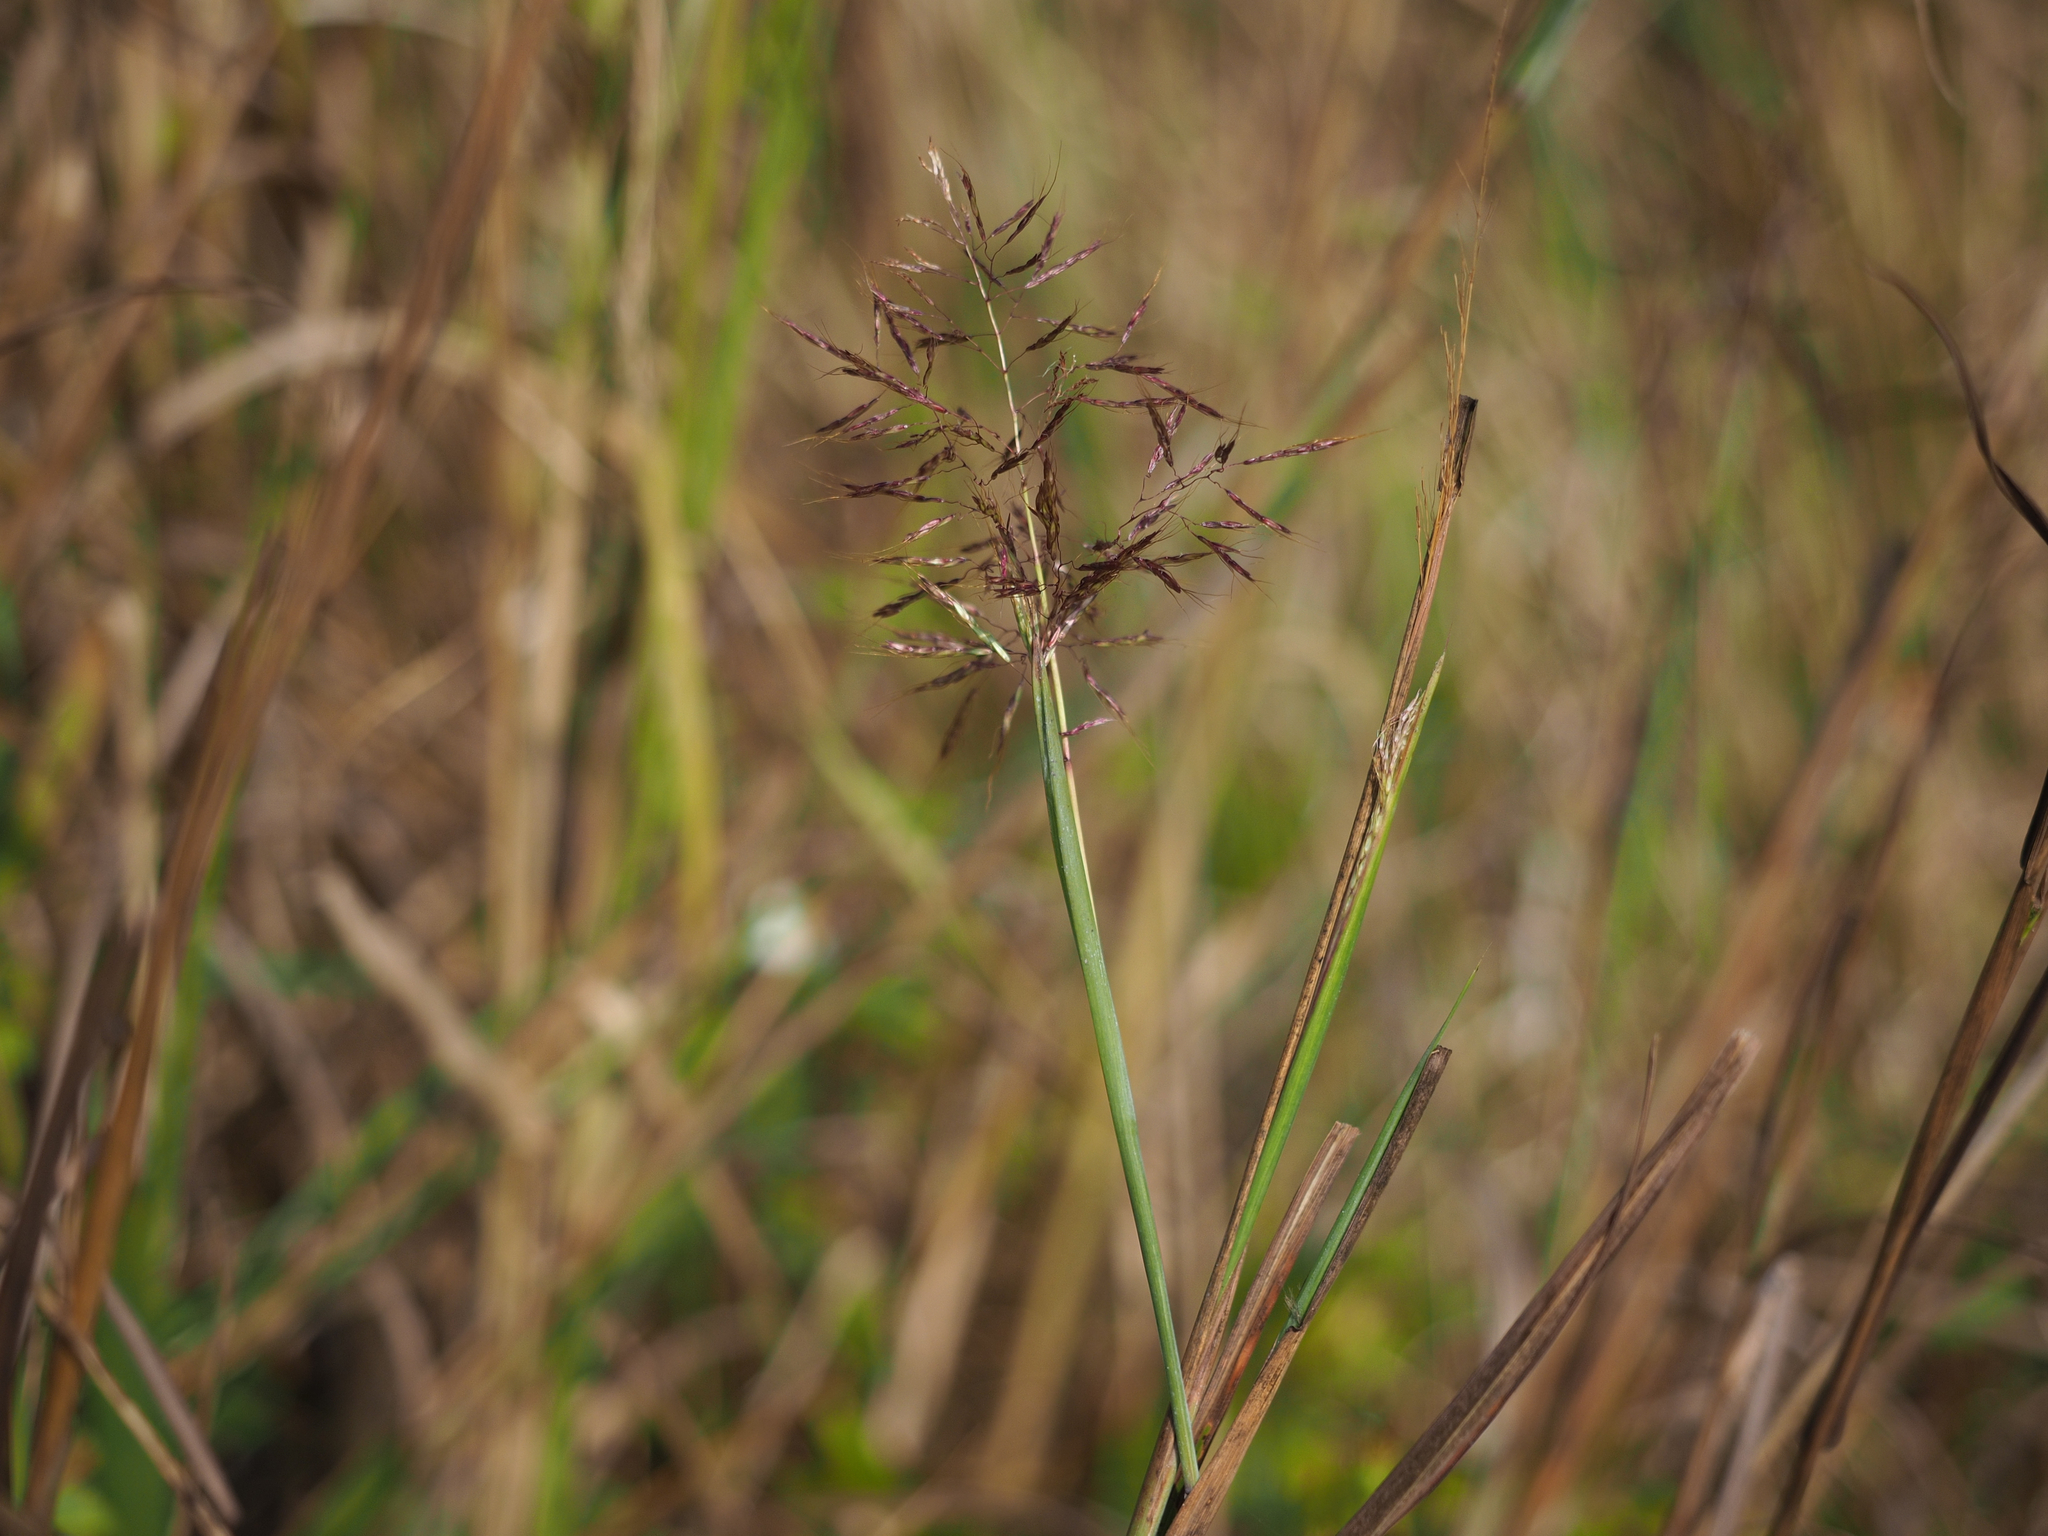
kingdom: Plantae
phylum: Tracheophyta
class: Liliopsida
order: Poales
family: Poaceae
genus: Capillipedium
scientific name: Capillipedium spicigerum
